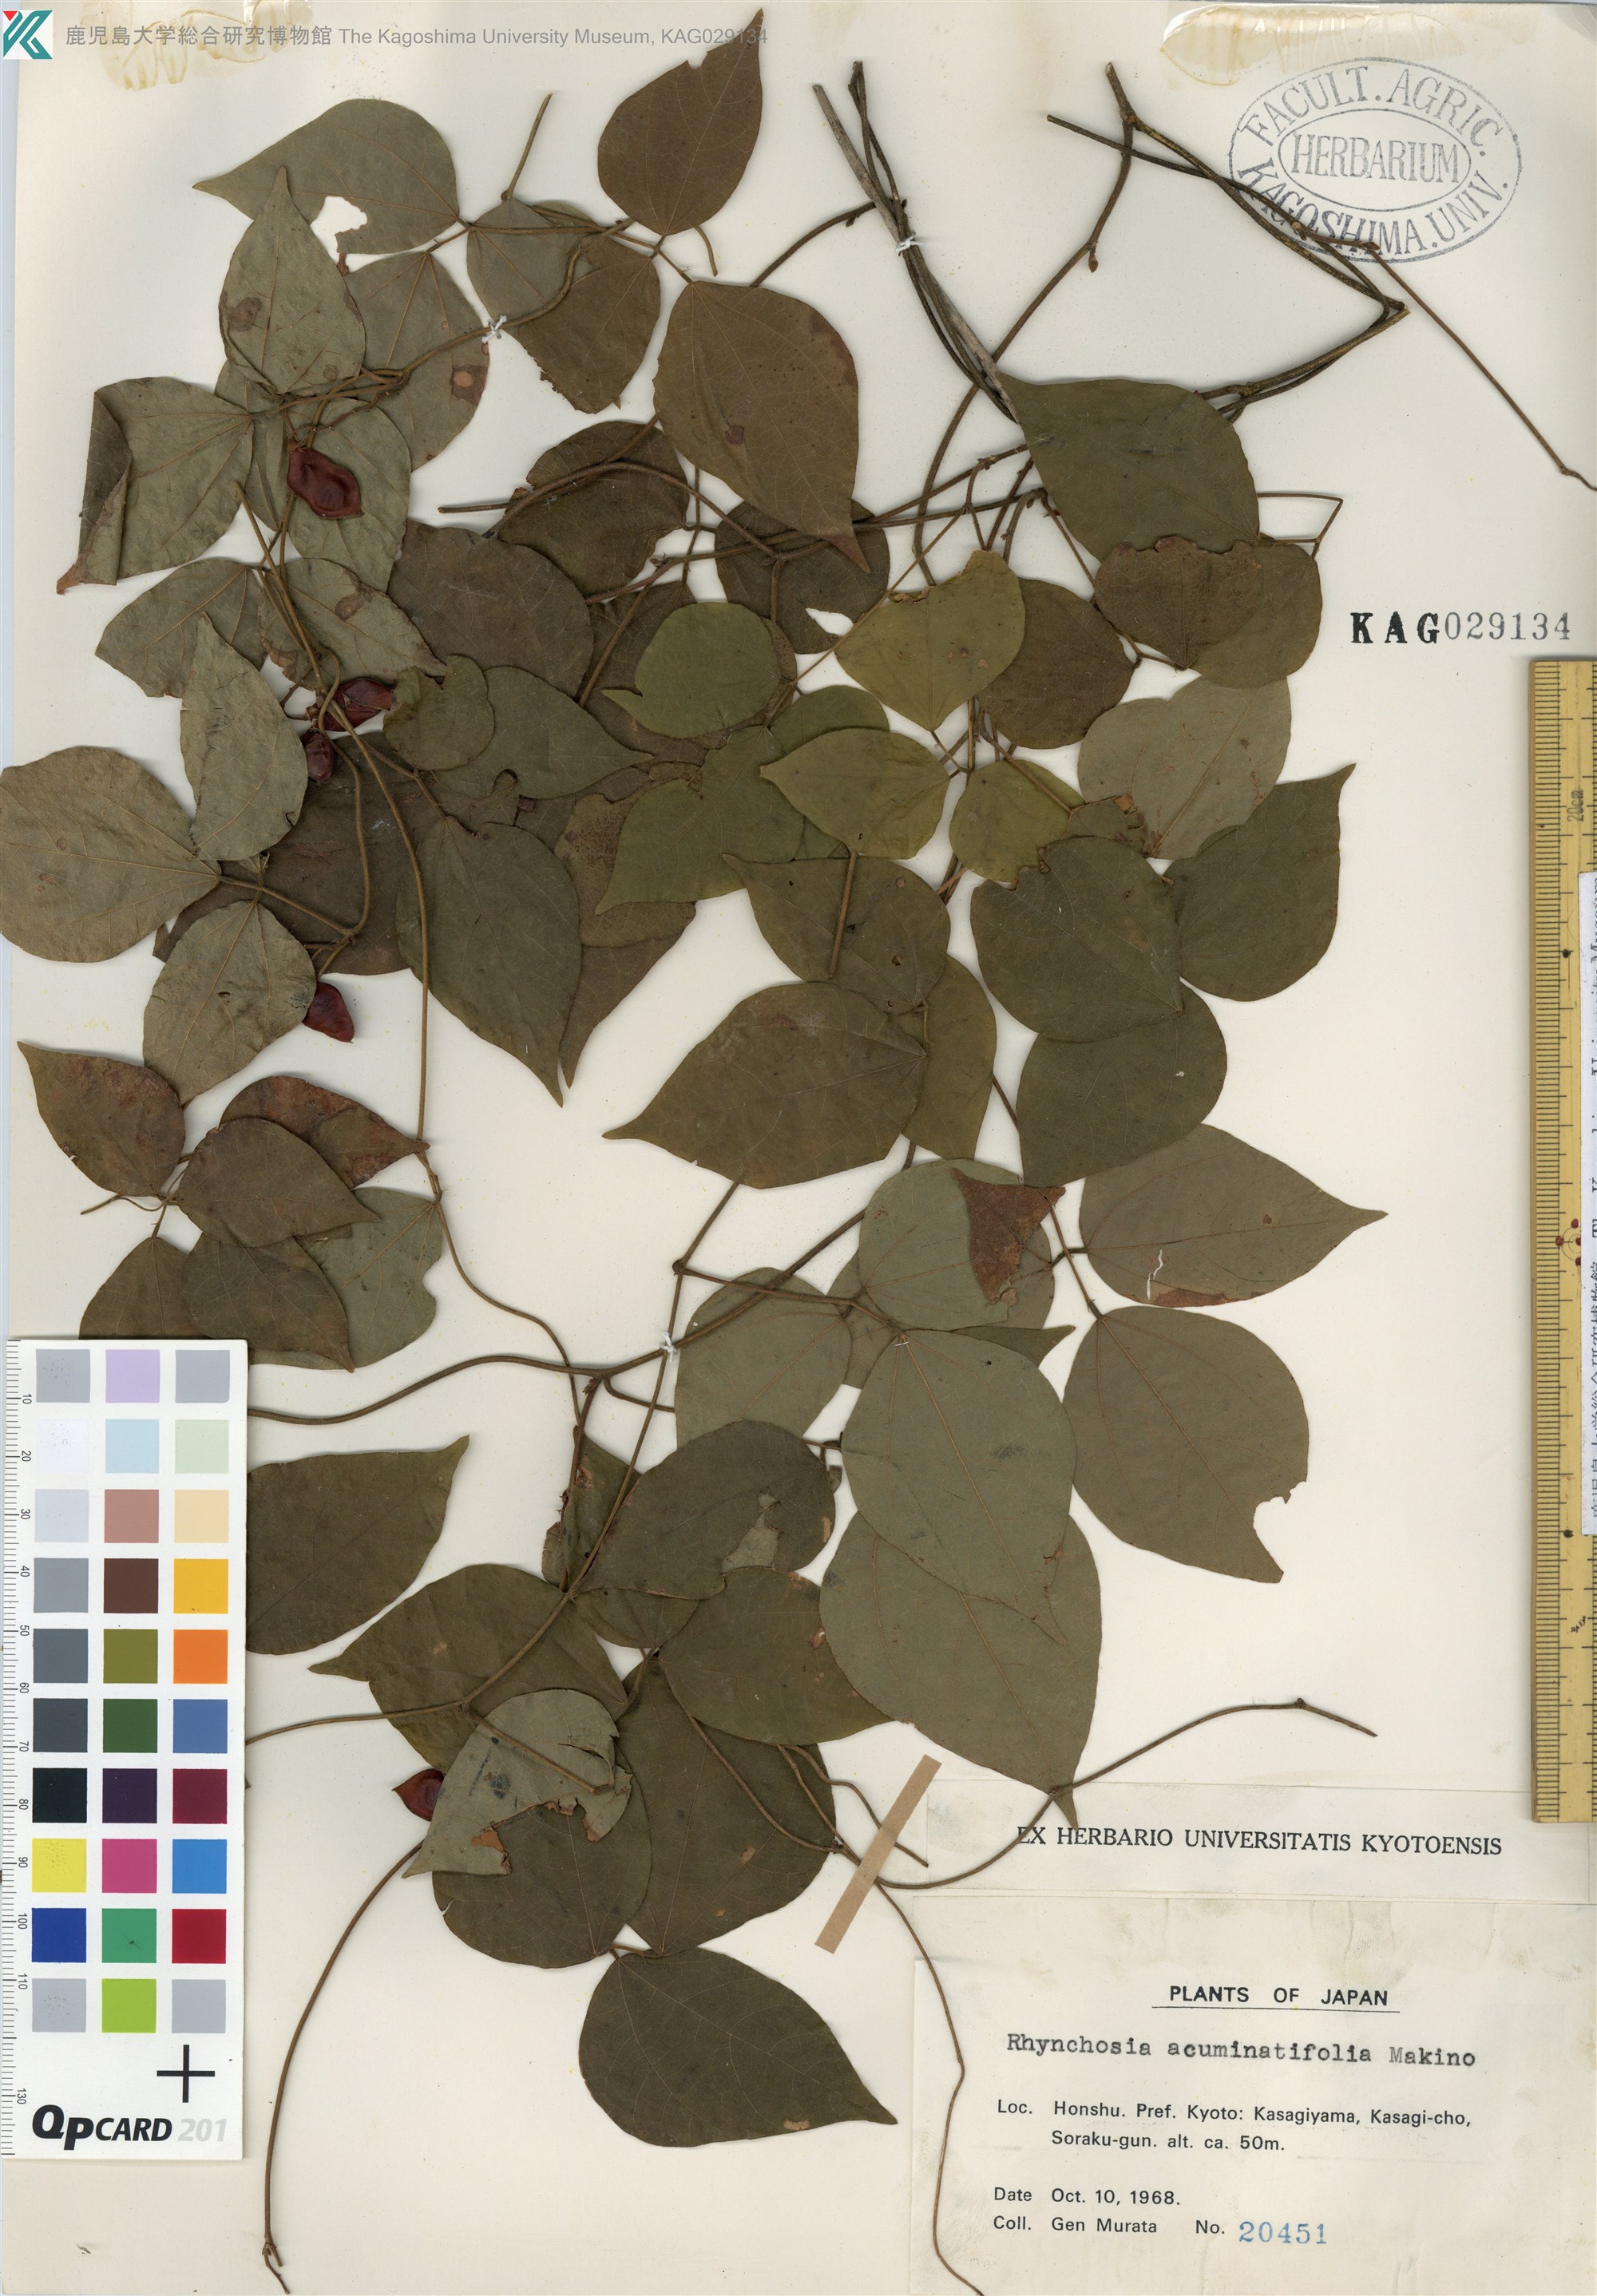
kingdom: Plantae
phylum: Tracheophyta
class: Magnoliopsida
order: Fabales
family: Fabaceae
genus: Rhynchosia
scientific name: Rhynchosia acuminatifolia
